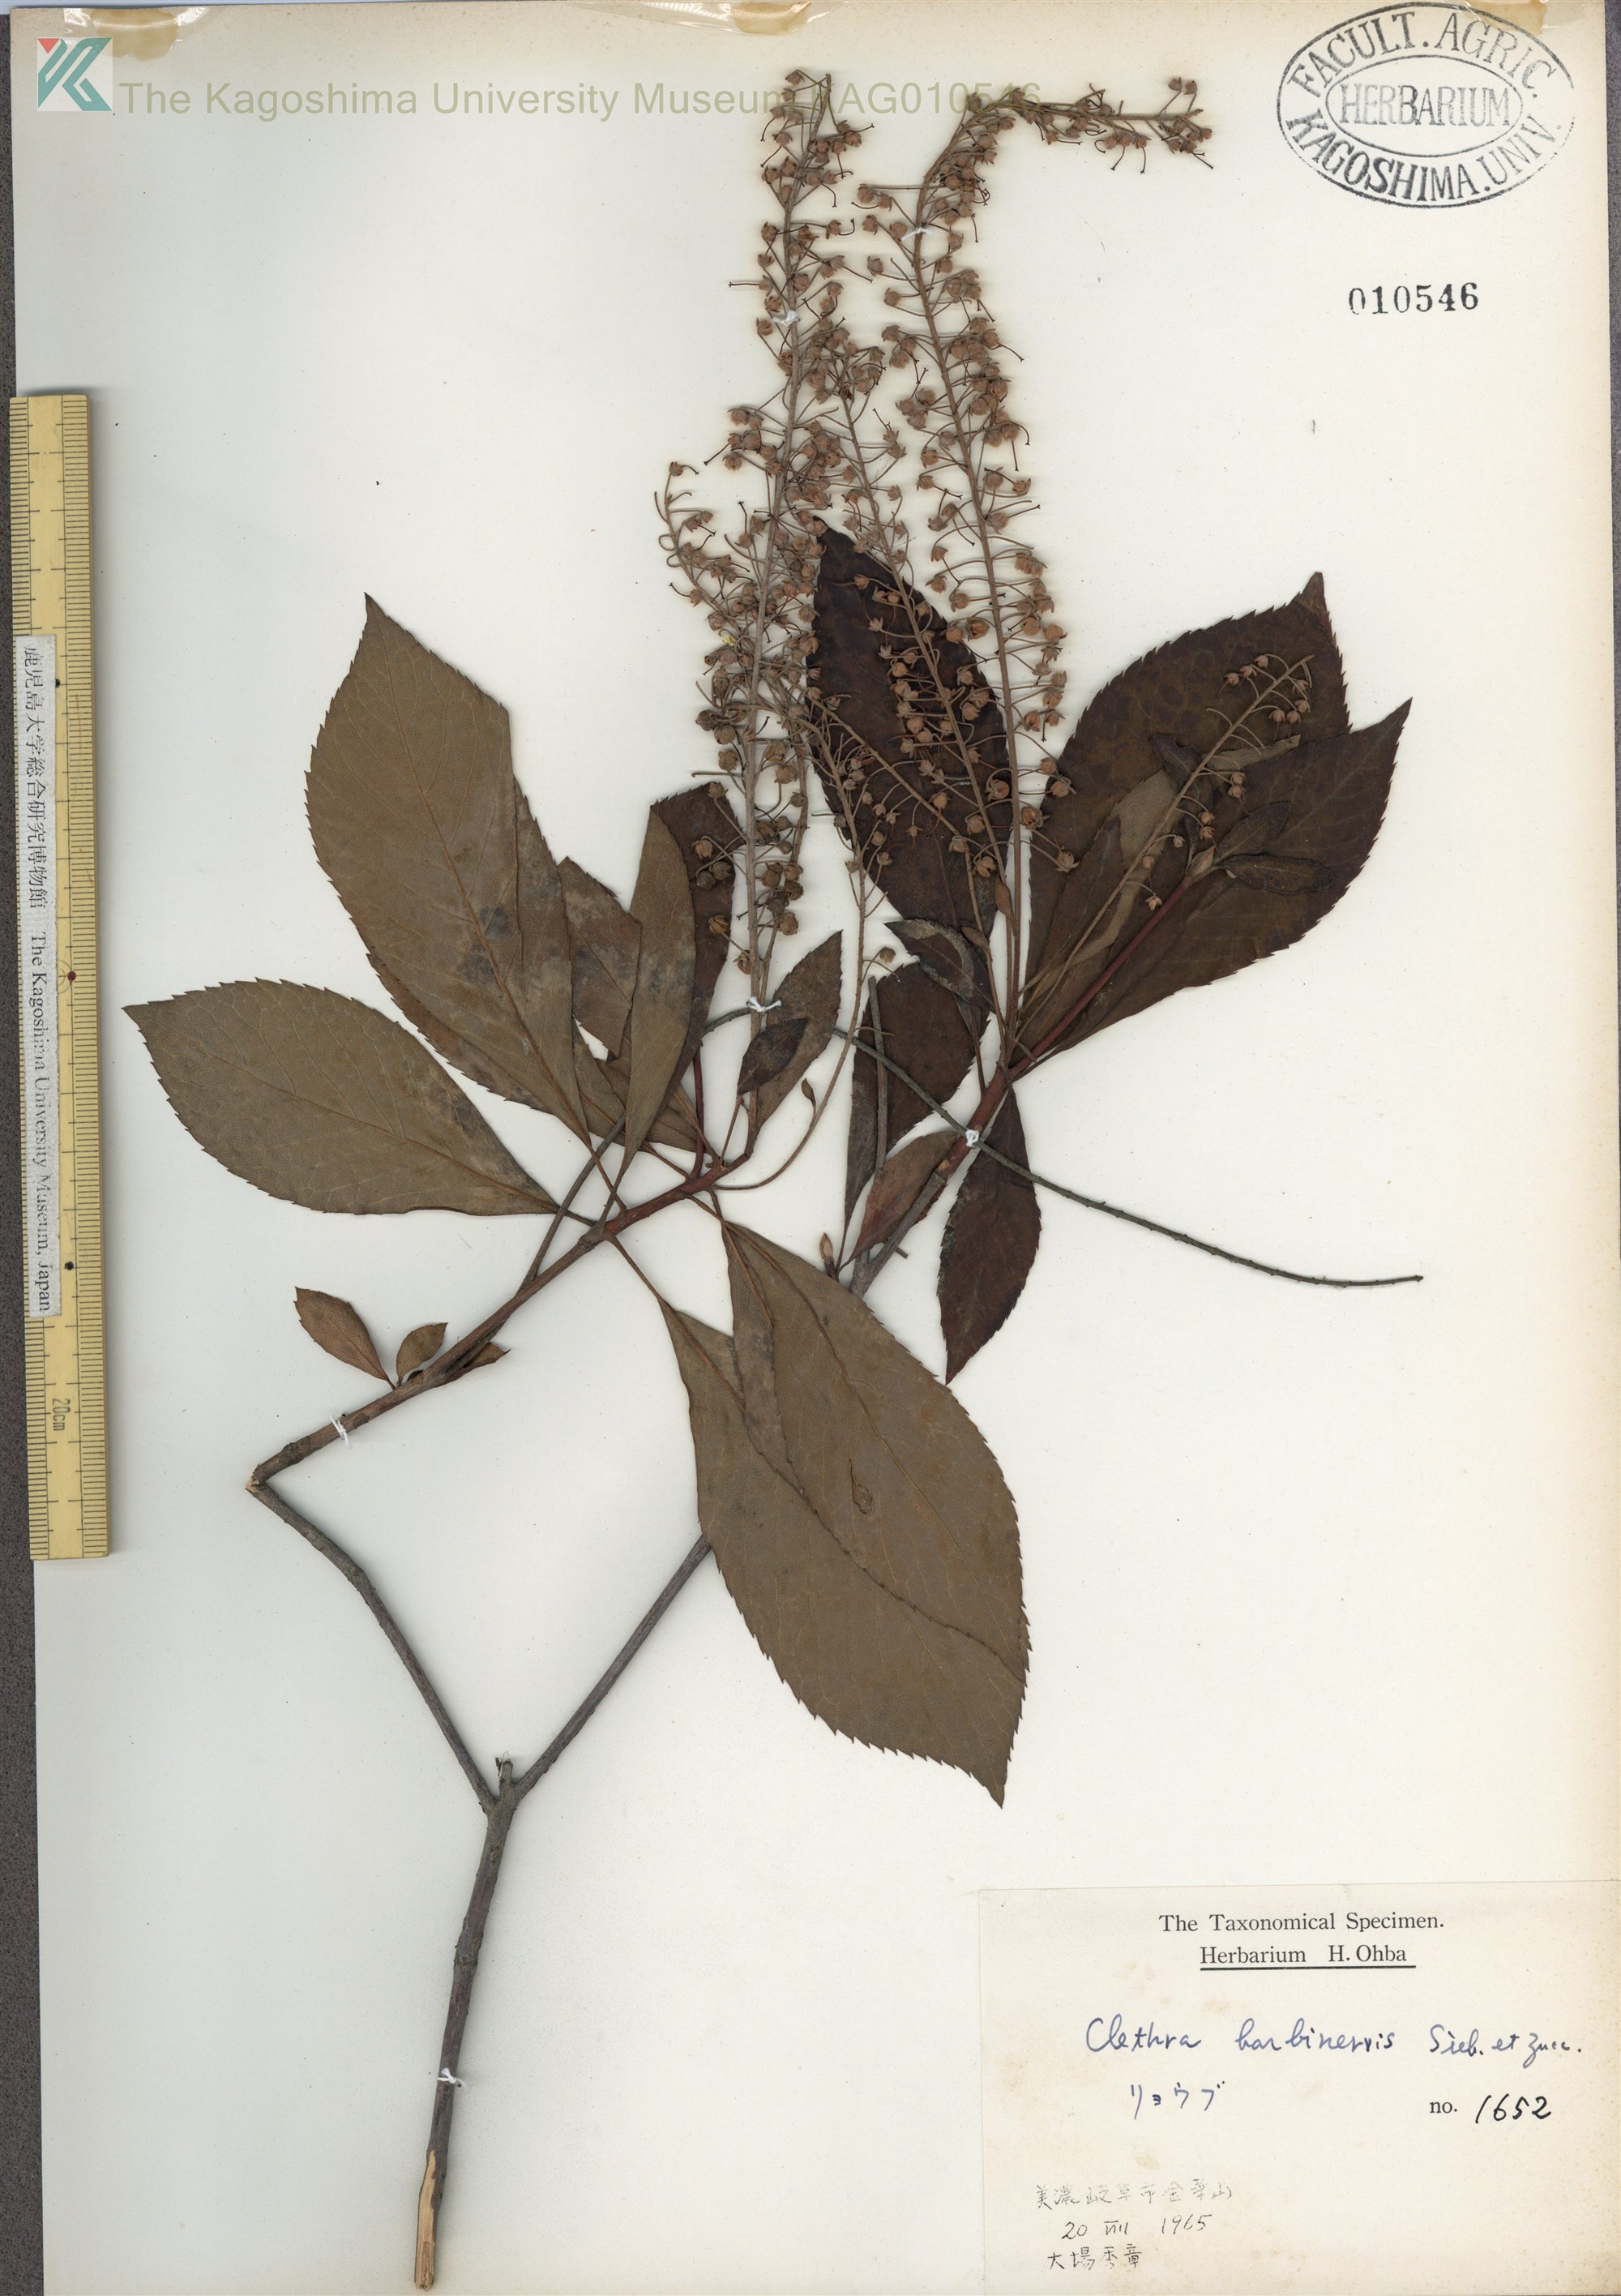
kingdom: Plantae
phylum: Tracheophyta
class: Magnoliopsida
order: Ericales
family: Clethraceae
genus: Clethra
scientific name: Clethra barbinervis
